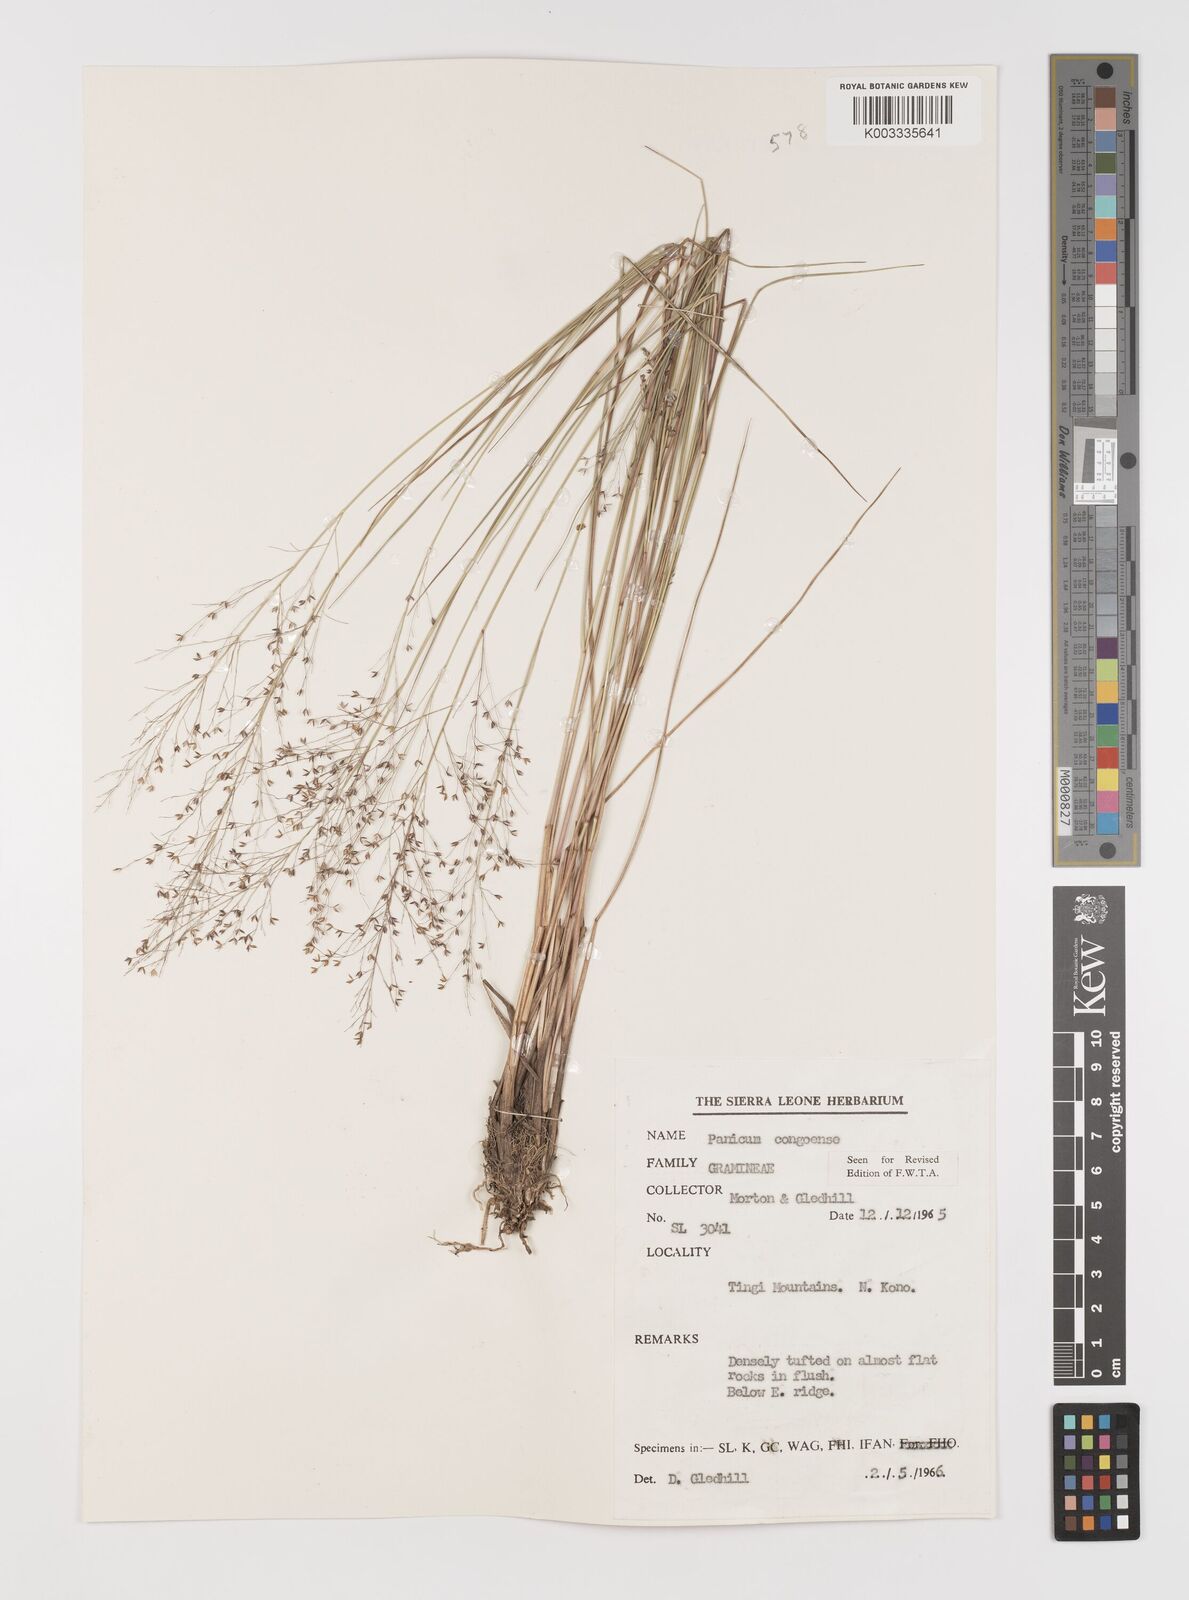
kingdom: Plantae
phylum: Tracheophyta
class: Liliopsida
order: Poales
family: Poaceae
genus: Panicum
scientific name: Panicum congoense
